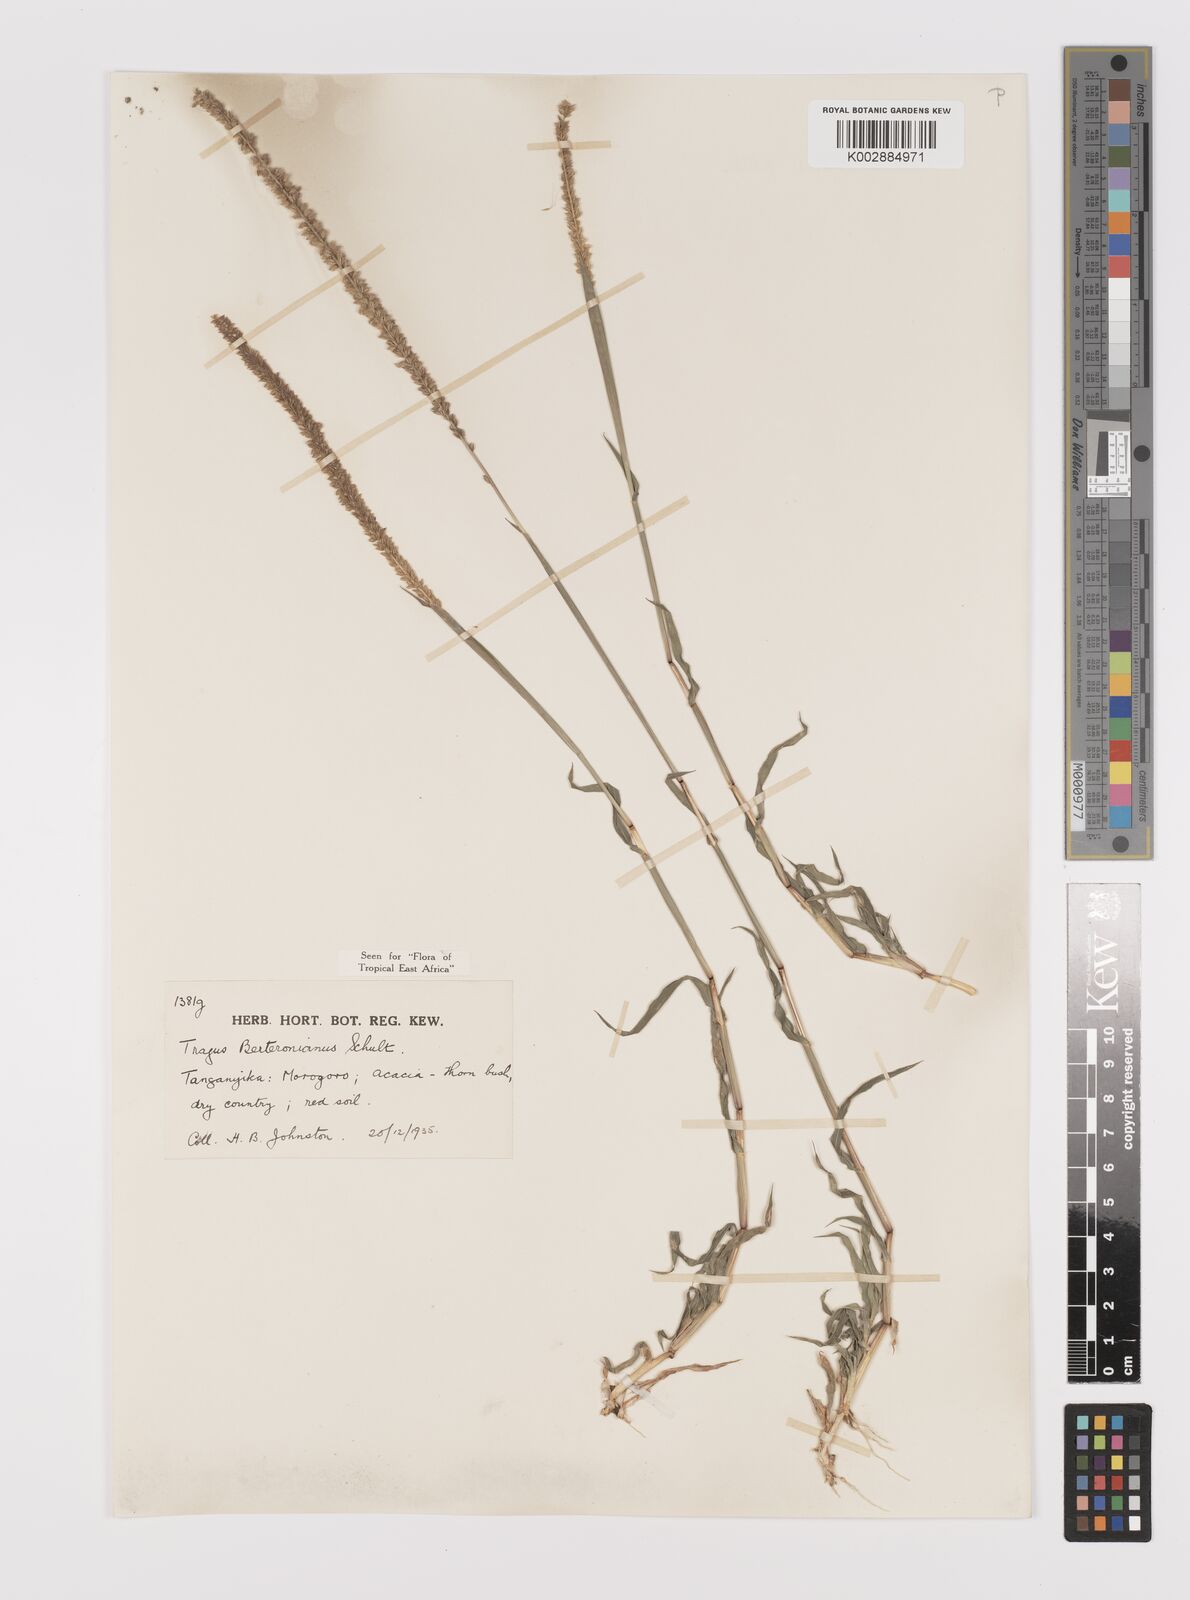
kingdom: Plantae
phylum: Tracheophyta
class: Liliopsida
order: Poales
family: Poaceae
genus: Tragus
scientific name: Tragus berteronianus
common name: African bur-grass
